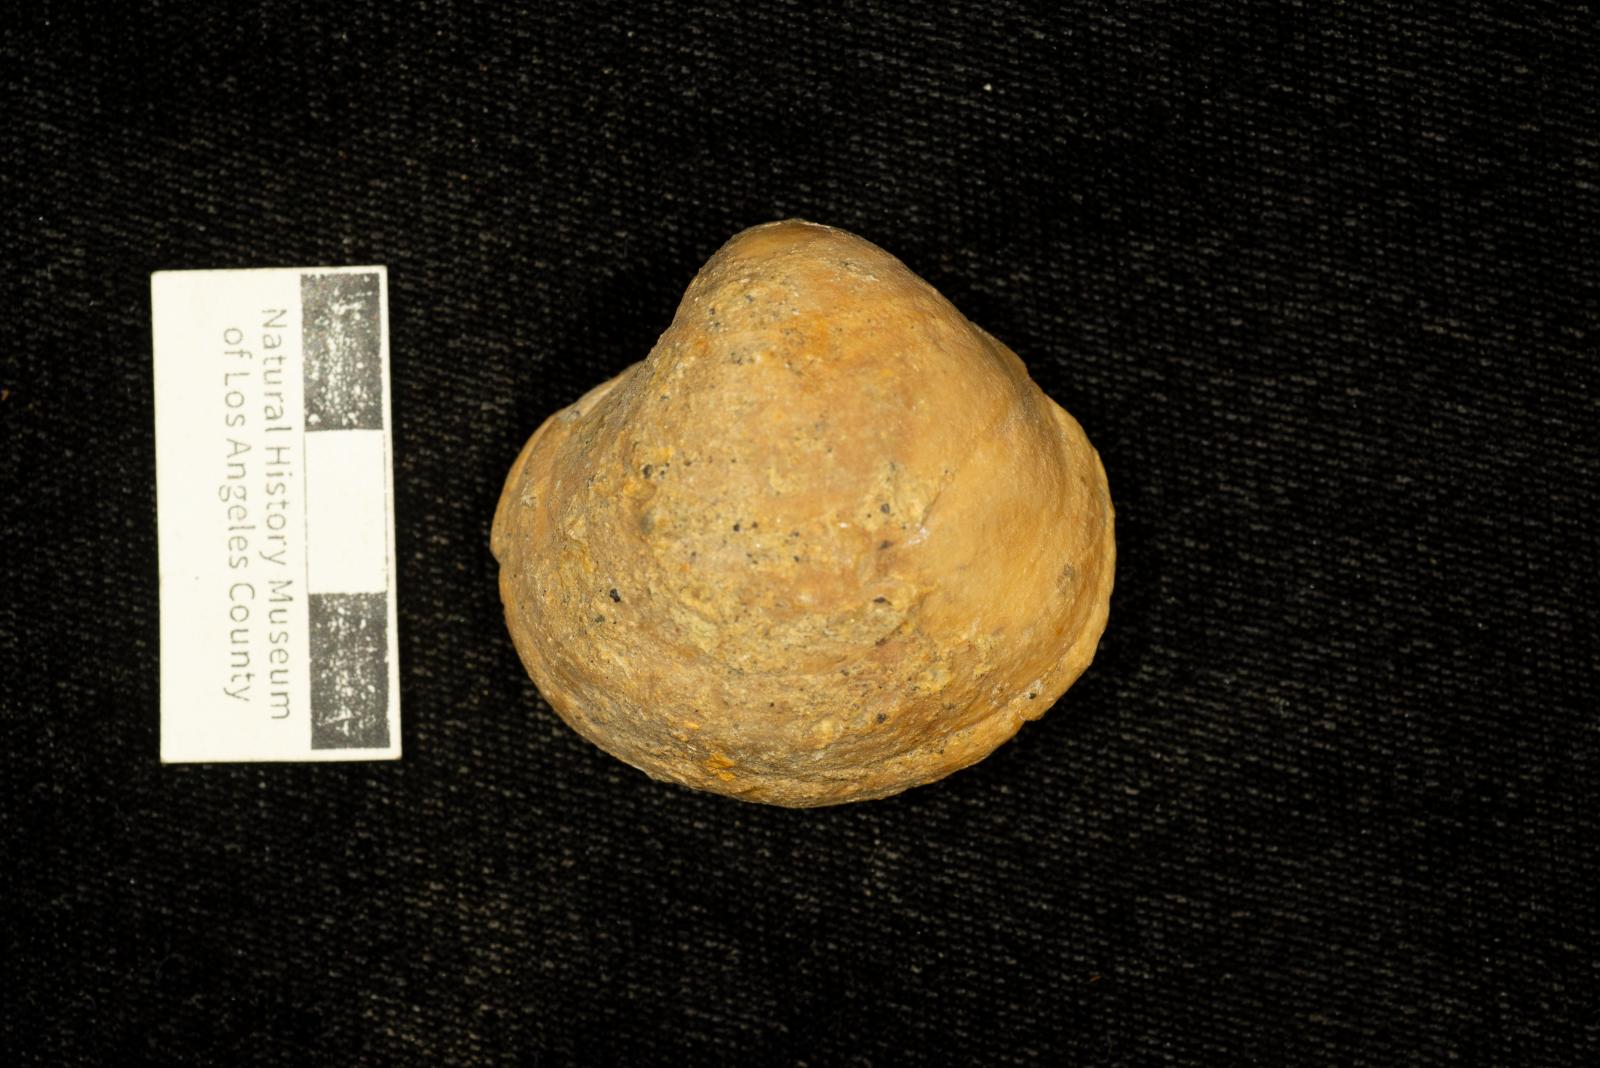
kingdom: Animalia
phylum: Mollusca
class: Bivalvia
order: Adapedonta
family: Edmondiidae
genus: Clisocolus
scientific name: Clisocolus
